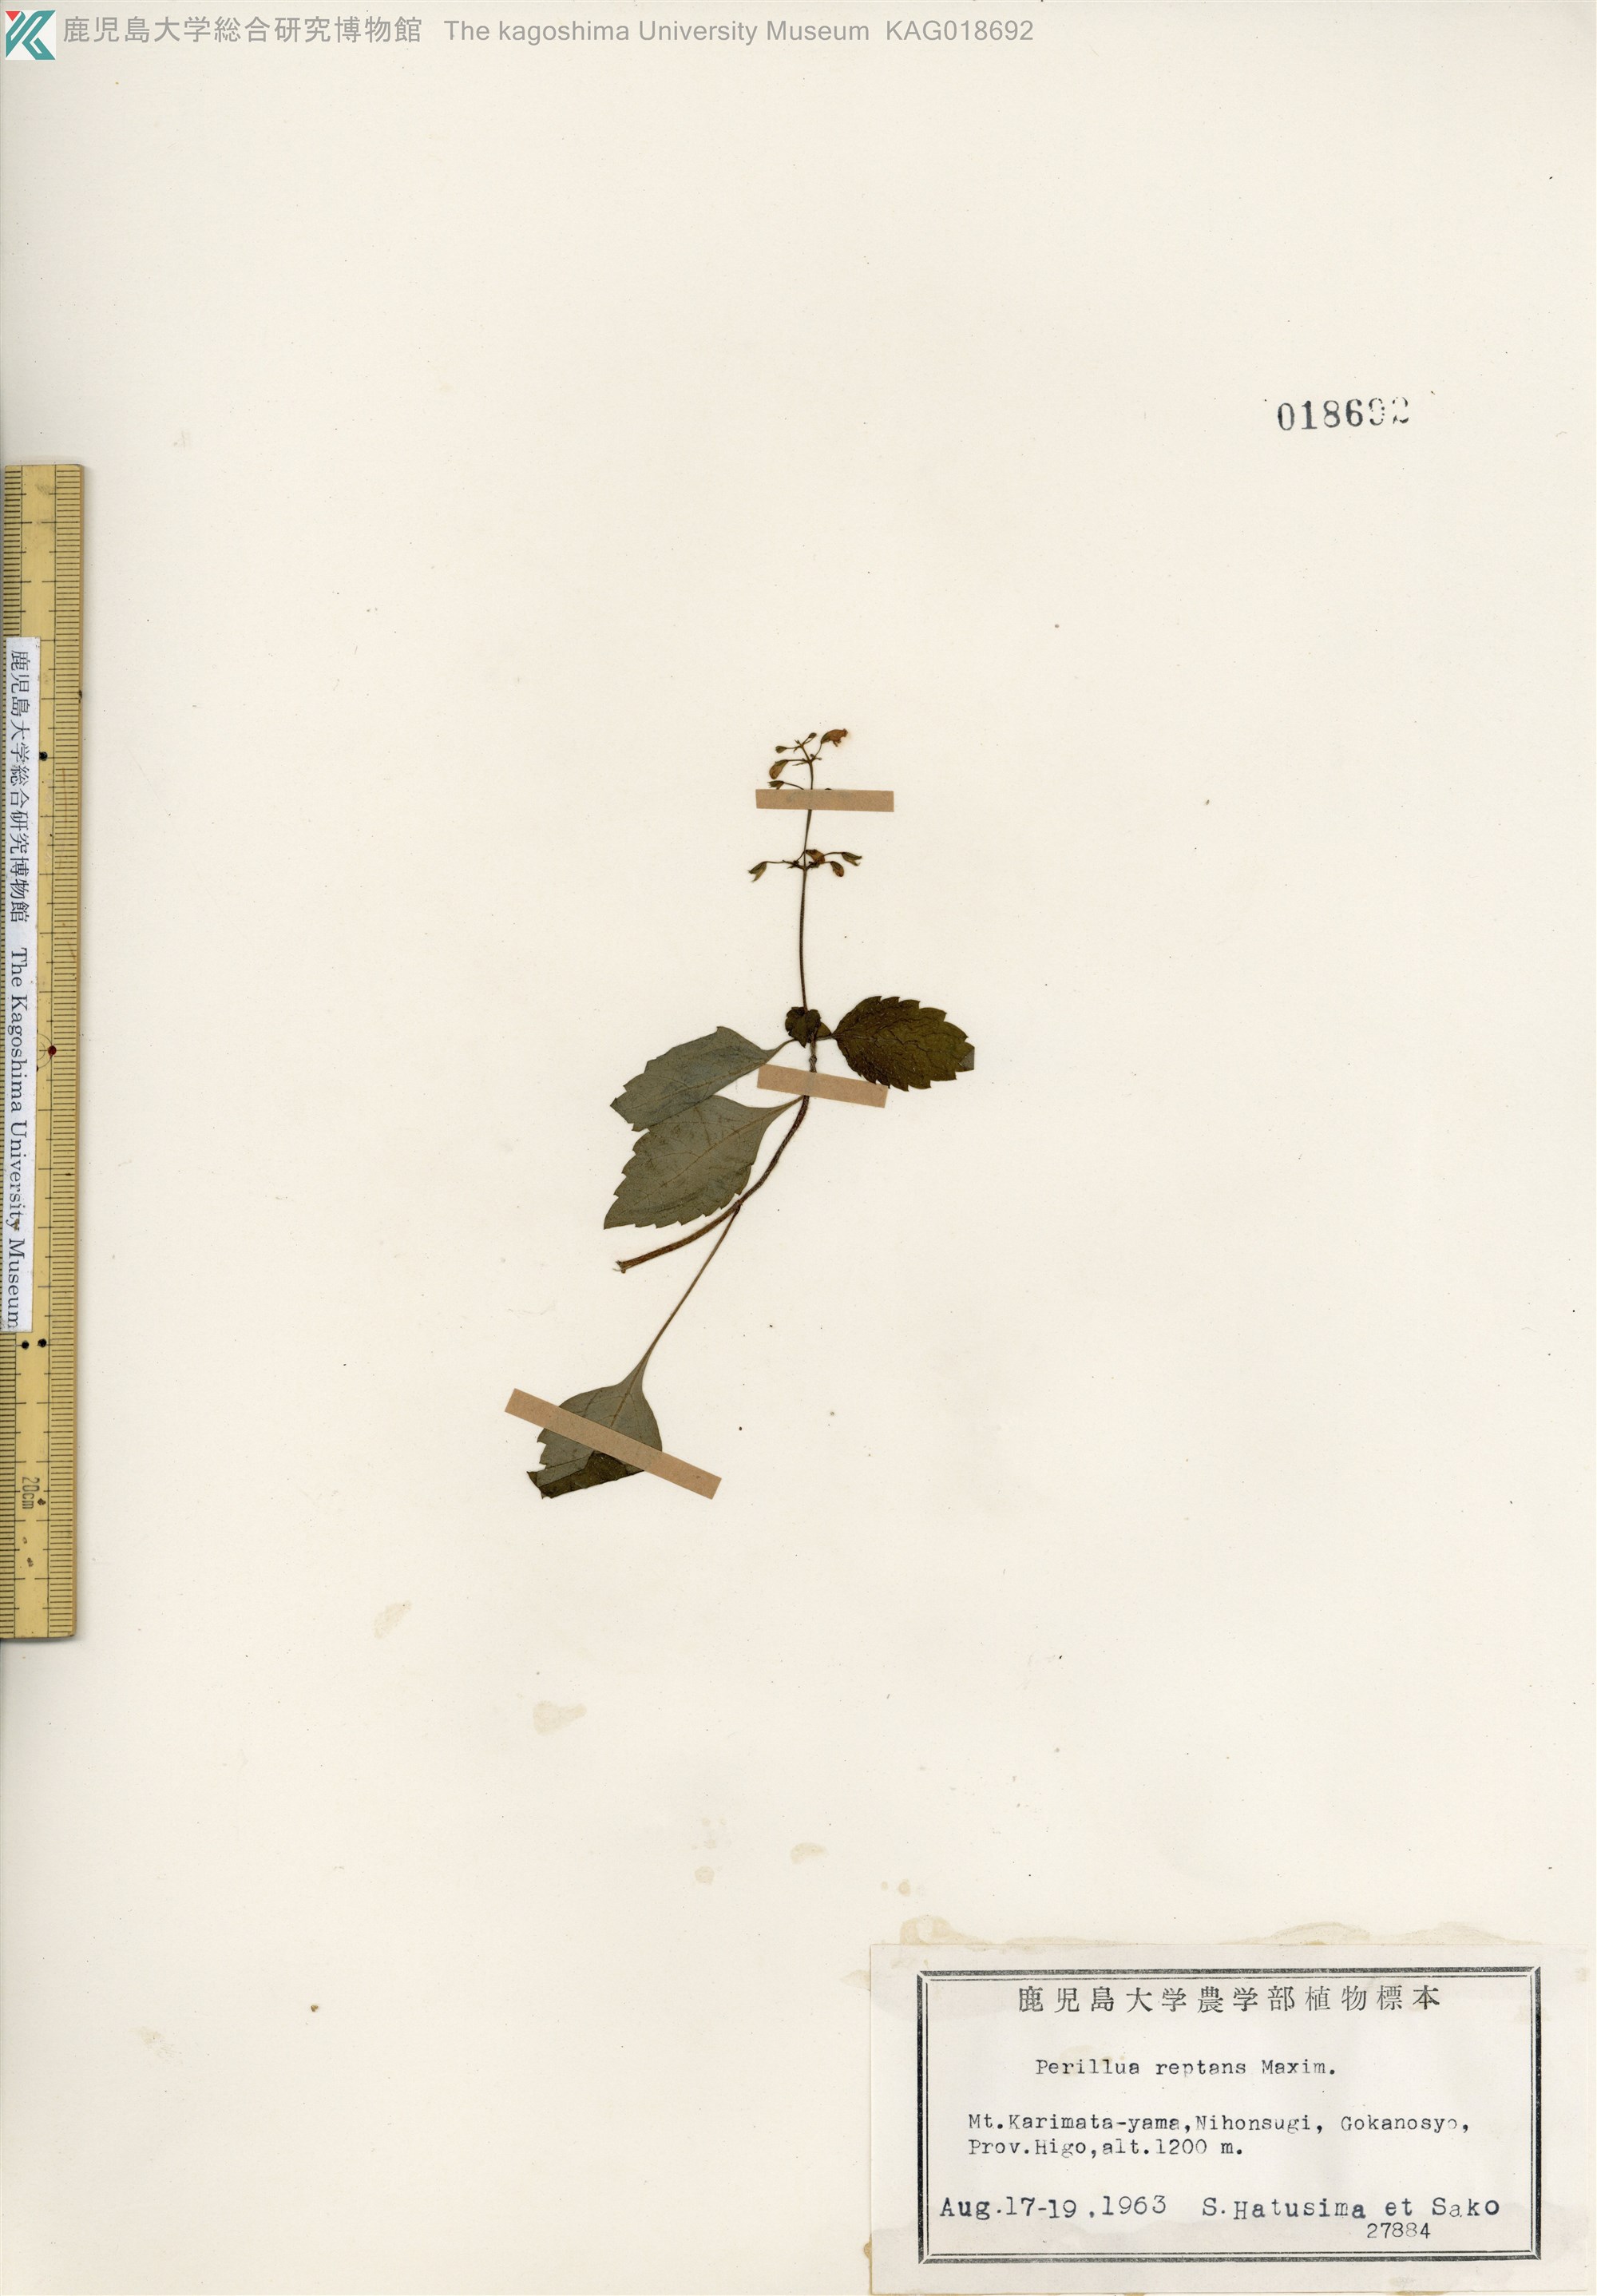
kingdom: Plantae
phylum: Tracheophyta
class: Magnoliopsida
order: Lamiales
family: Lamiaceae
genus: Perillula
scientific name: Perillula reptans
